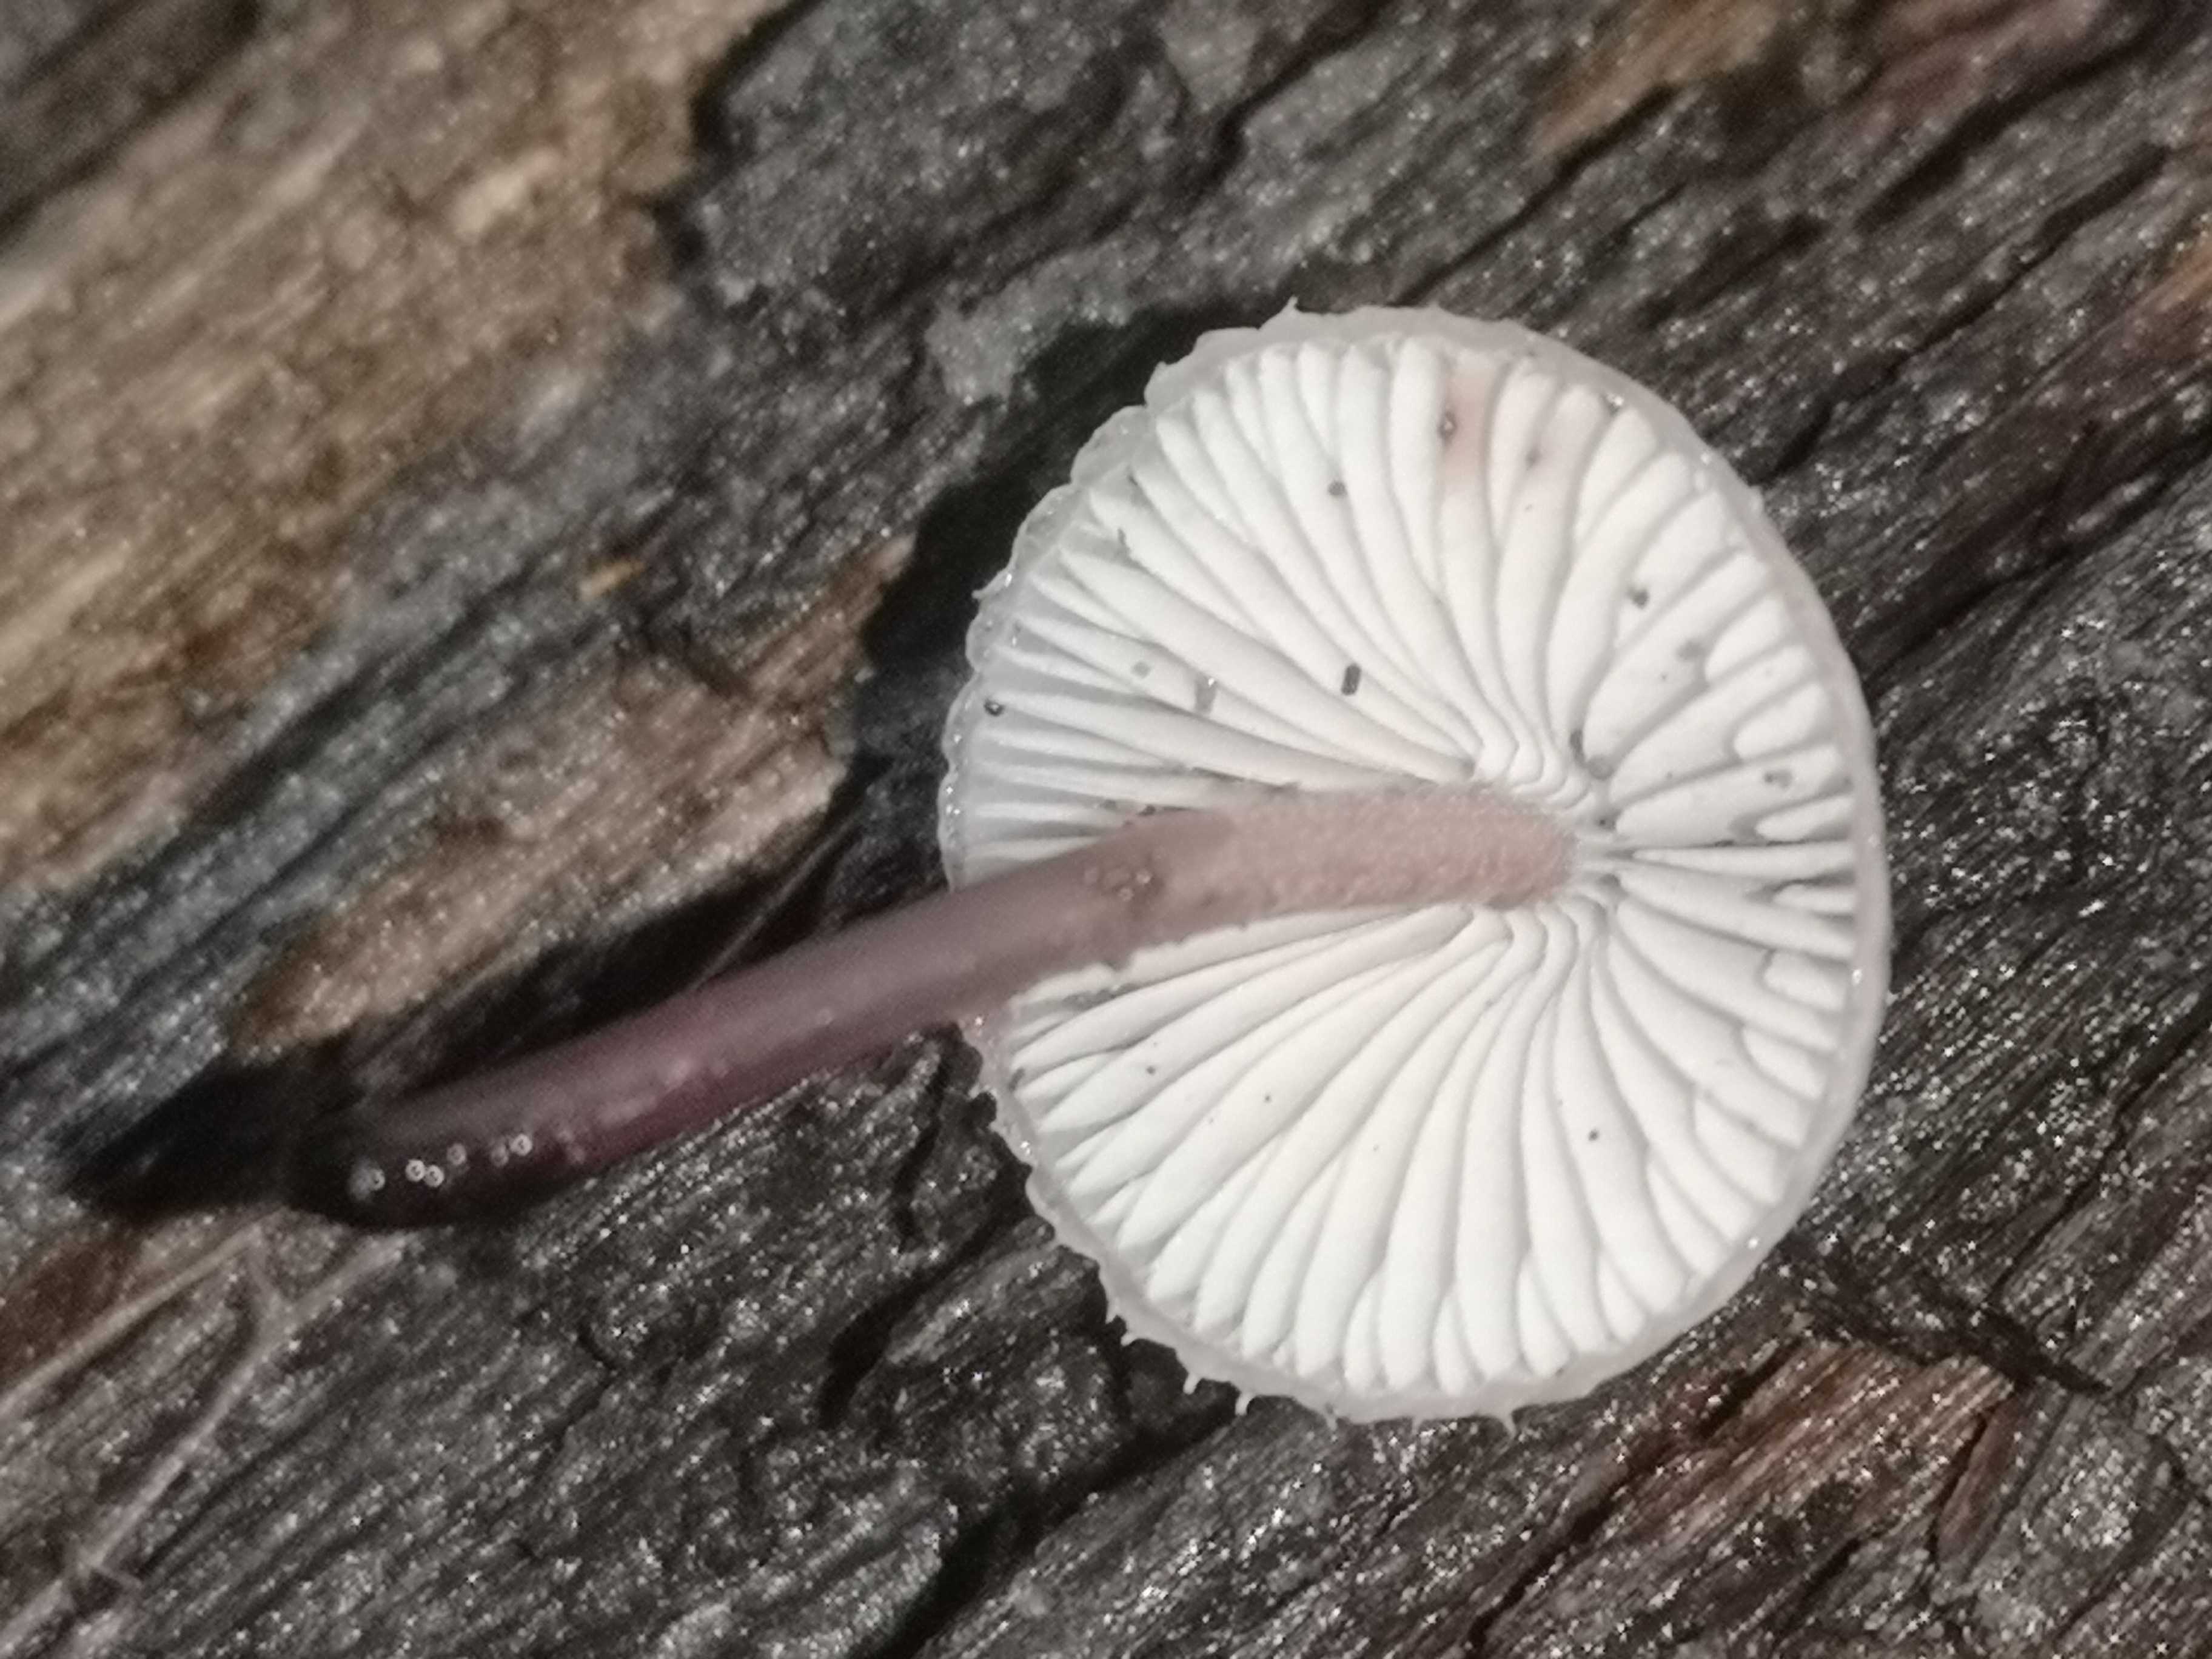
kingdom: Fungi
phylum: Basidiomycota
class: Agaricomycetes
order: Agaricales
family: Mycenaceae
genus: Mycena
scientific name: Mycena haematopus
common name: blødende huesvamp
